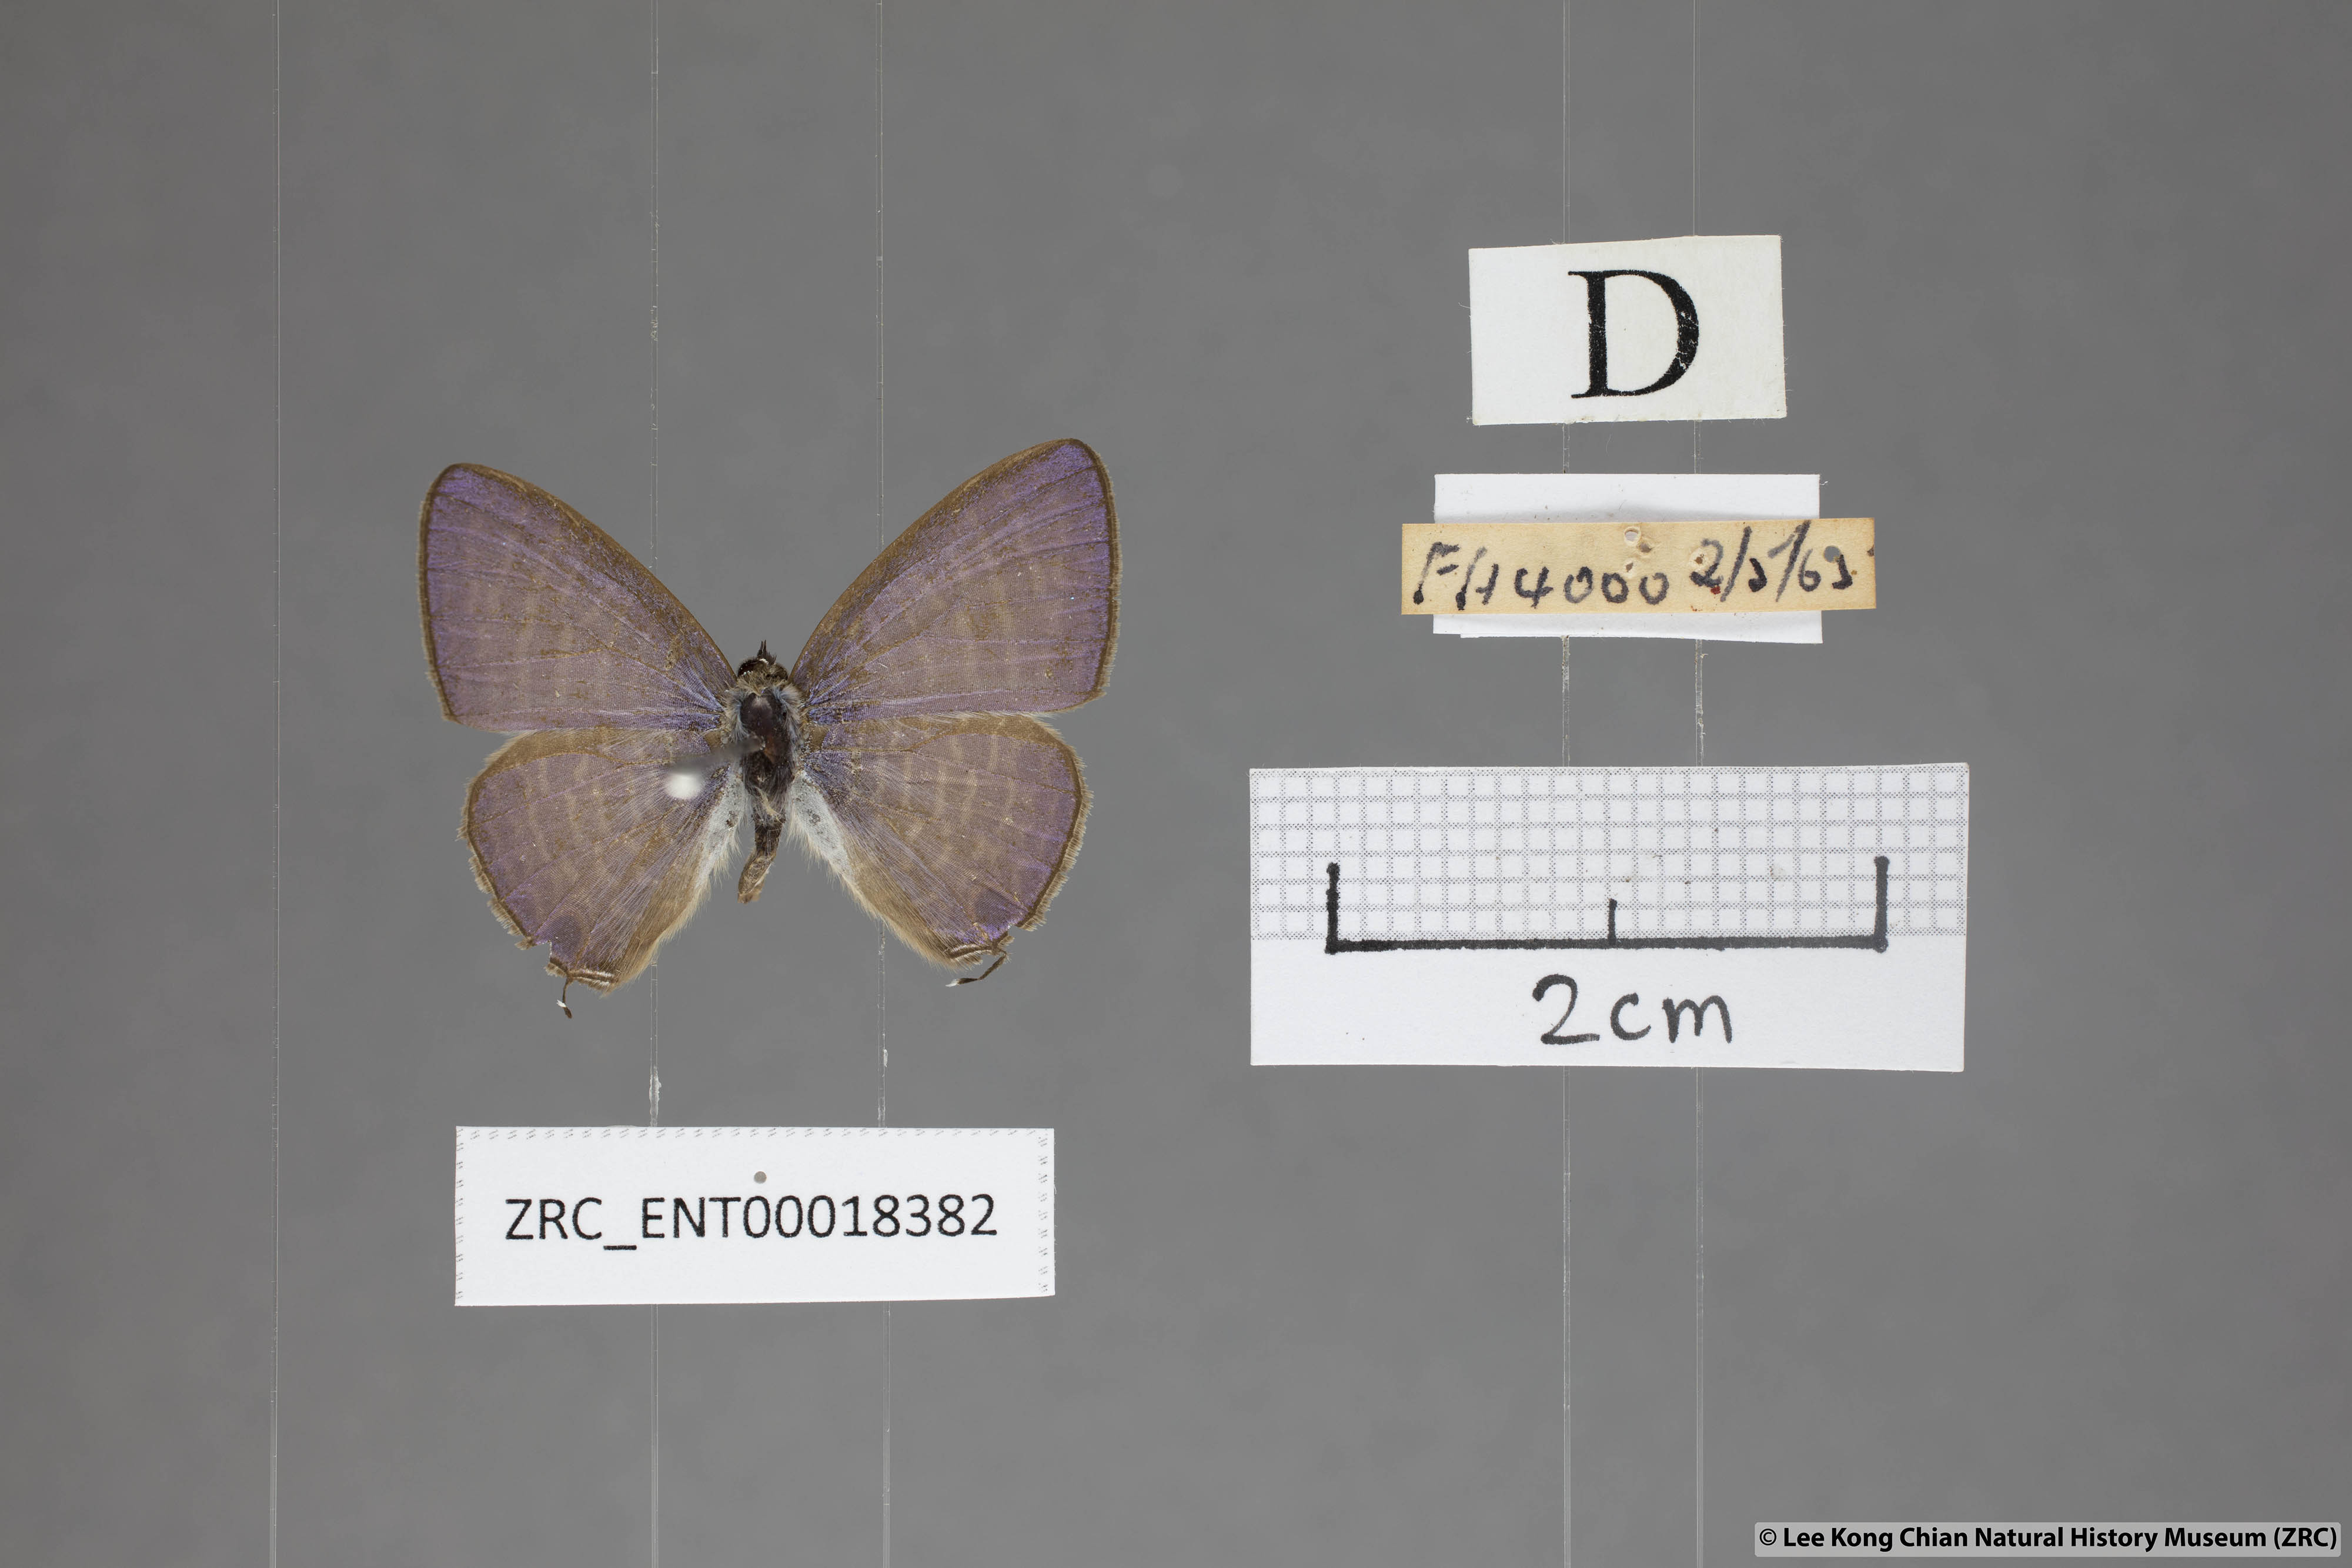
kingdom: Animalia
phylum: Arthropoda
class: Insecta
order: Lepidoptera
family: Lycaenidae
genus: Nacaduba
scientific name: Nacaduba kurava
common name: Transparent 6-line blue
